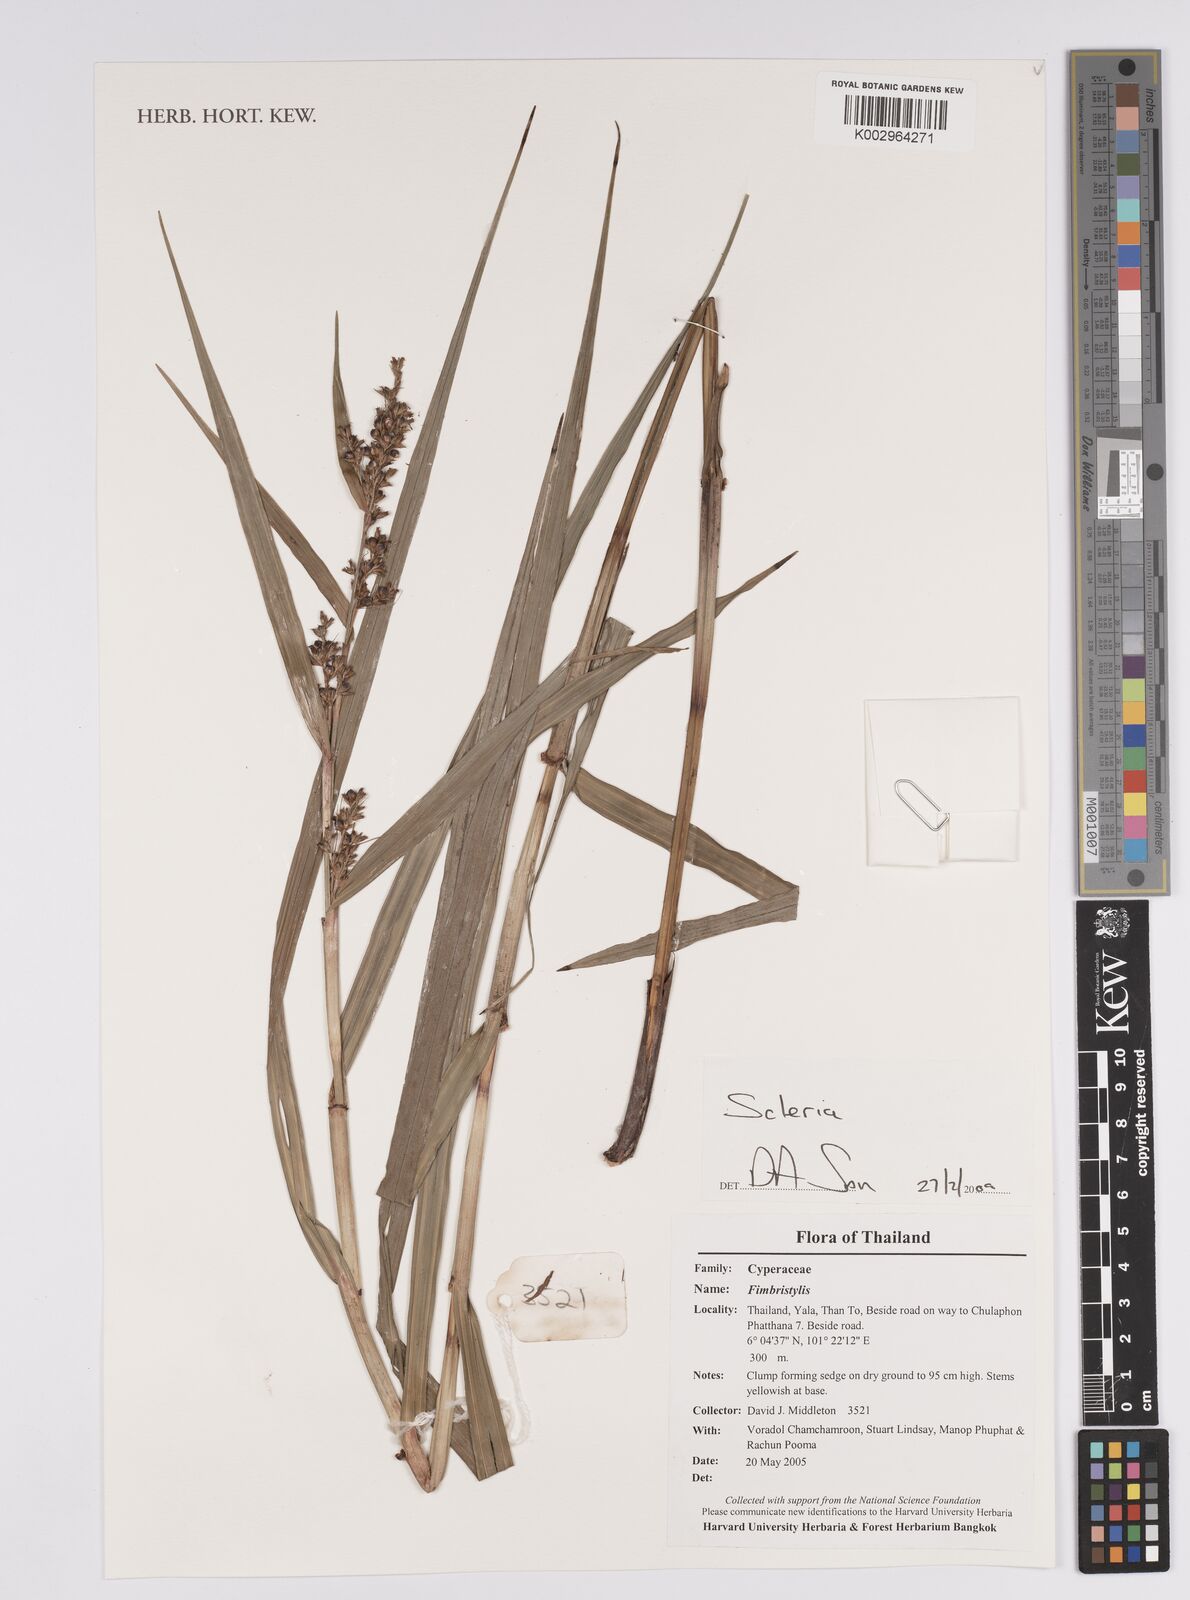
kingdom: Plantae
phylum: Tracheophyta
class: Liliopsida
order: Poales
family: Cyperaceae
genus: Scleria
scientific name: Scleria
